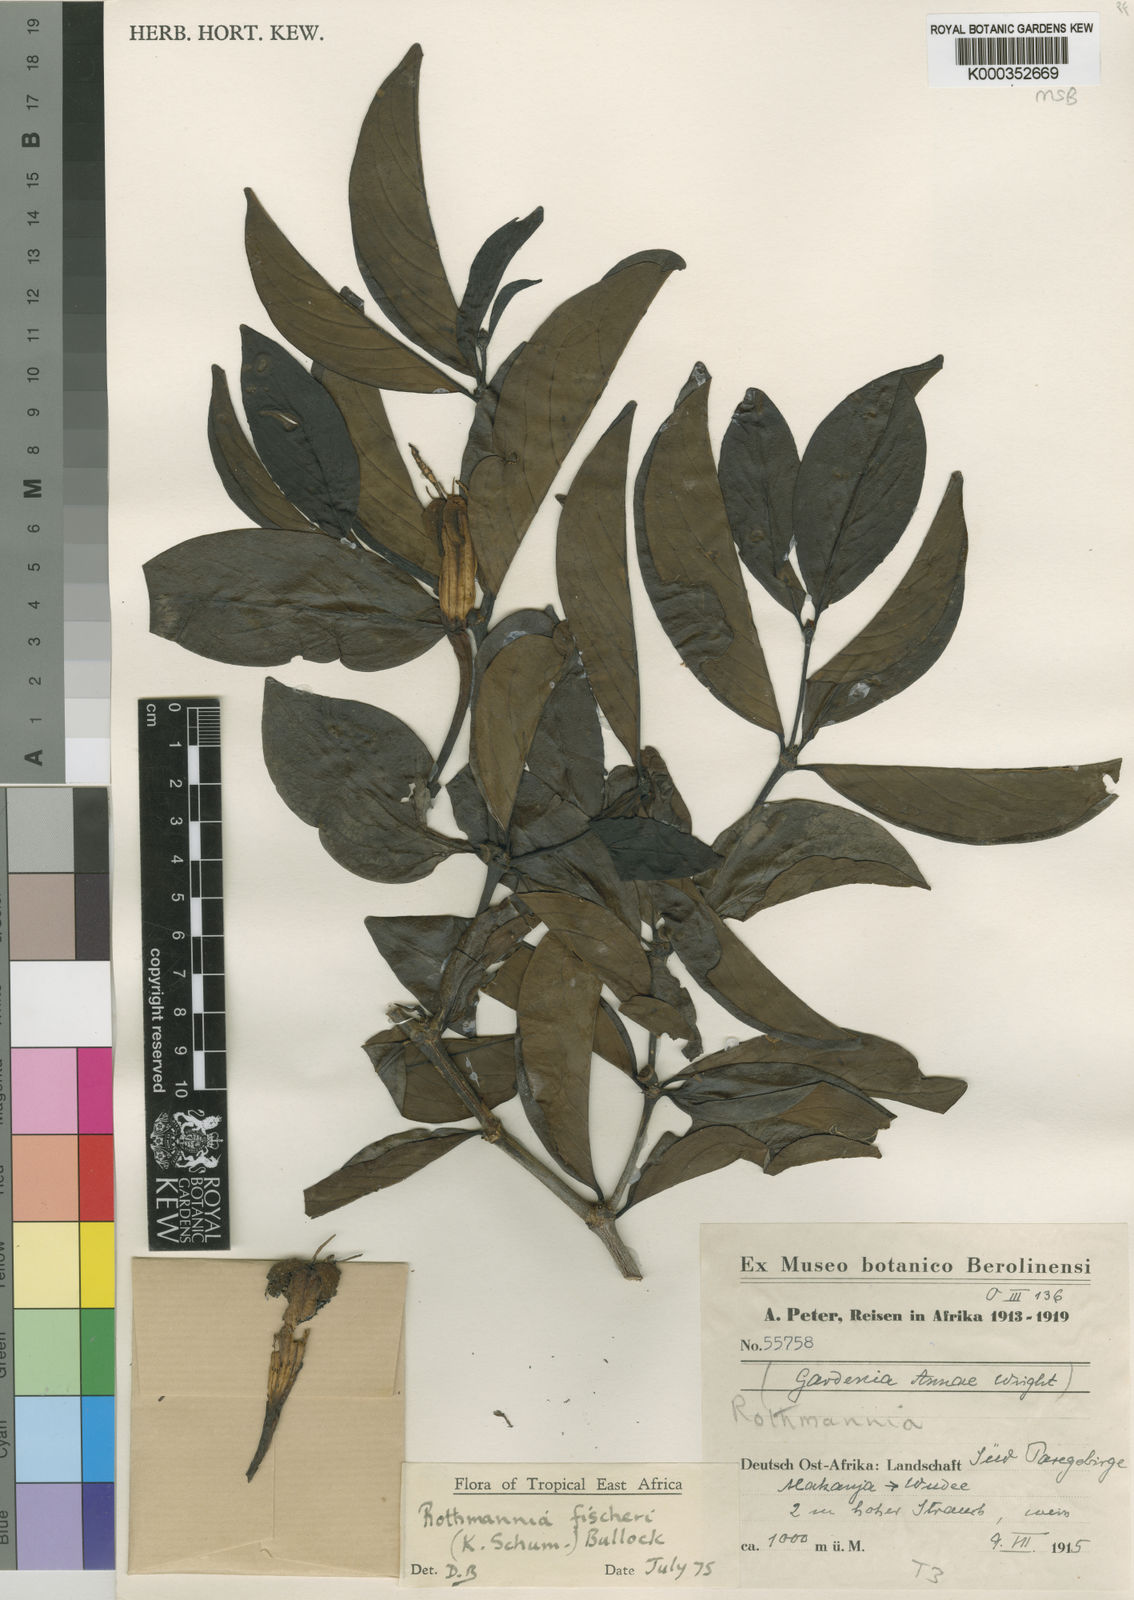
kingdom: Plantae
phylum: Tracheophyta
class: Magnoliopsida
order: Gentianales
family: Rubiaceae
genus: Rothmannia
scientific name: Rothmannia fischeri
